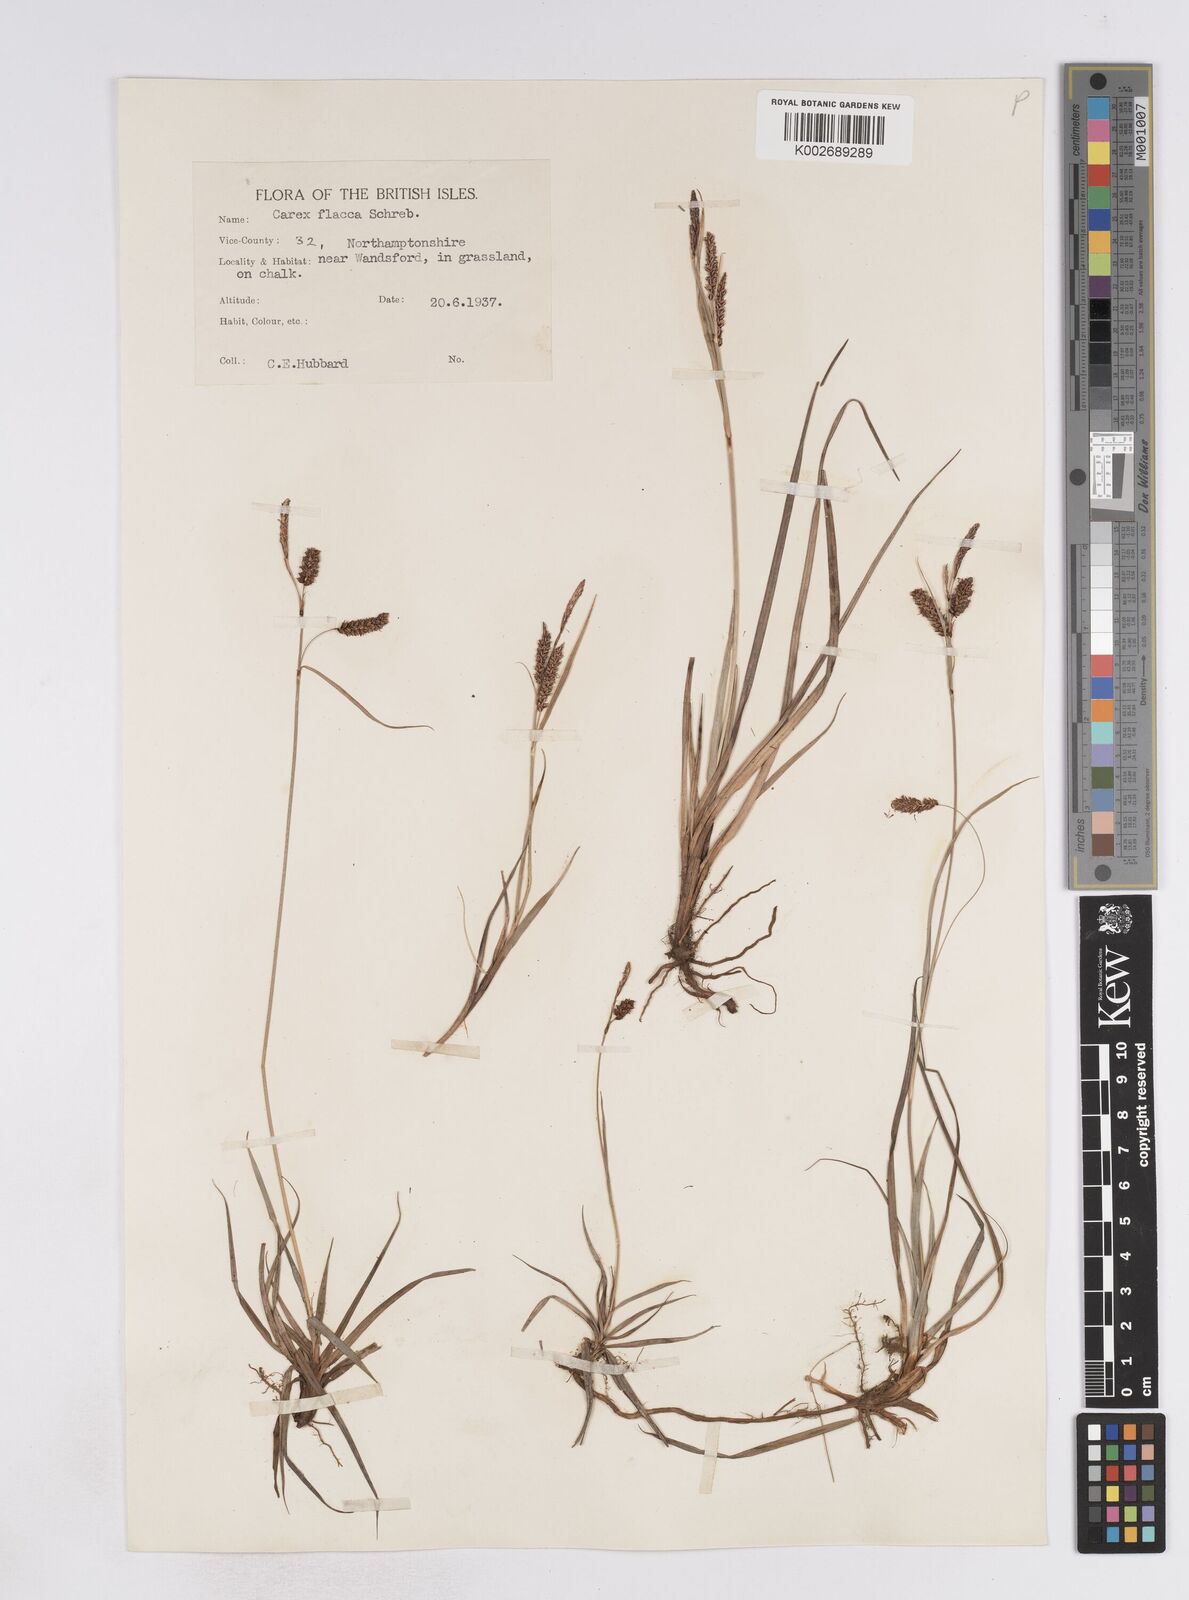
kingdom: Plantae
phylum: Tracheophyta
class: Liliopsida
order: Poales
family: Cyperaceae
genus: Carex
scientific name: Carex flacca
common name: Glaucous sedge
